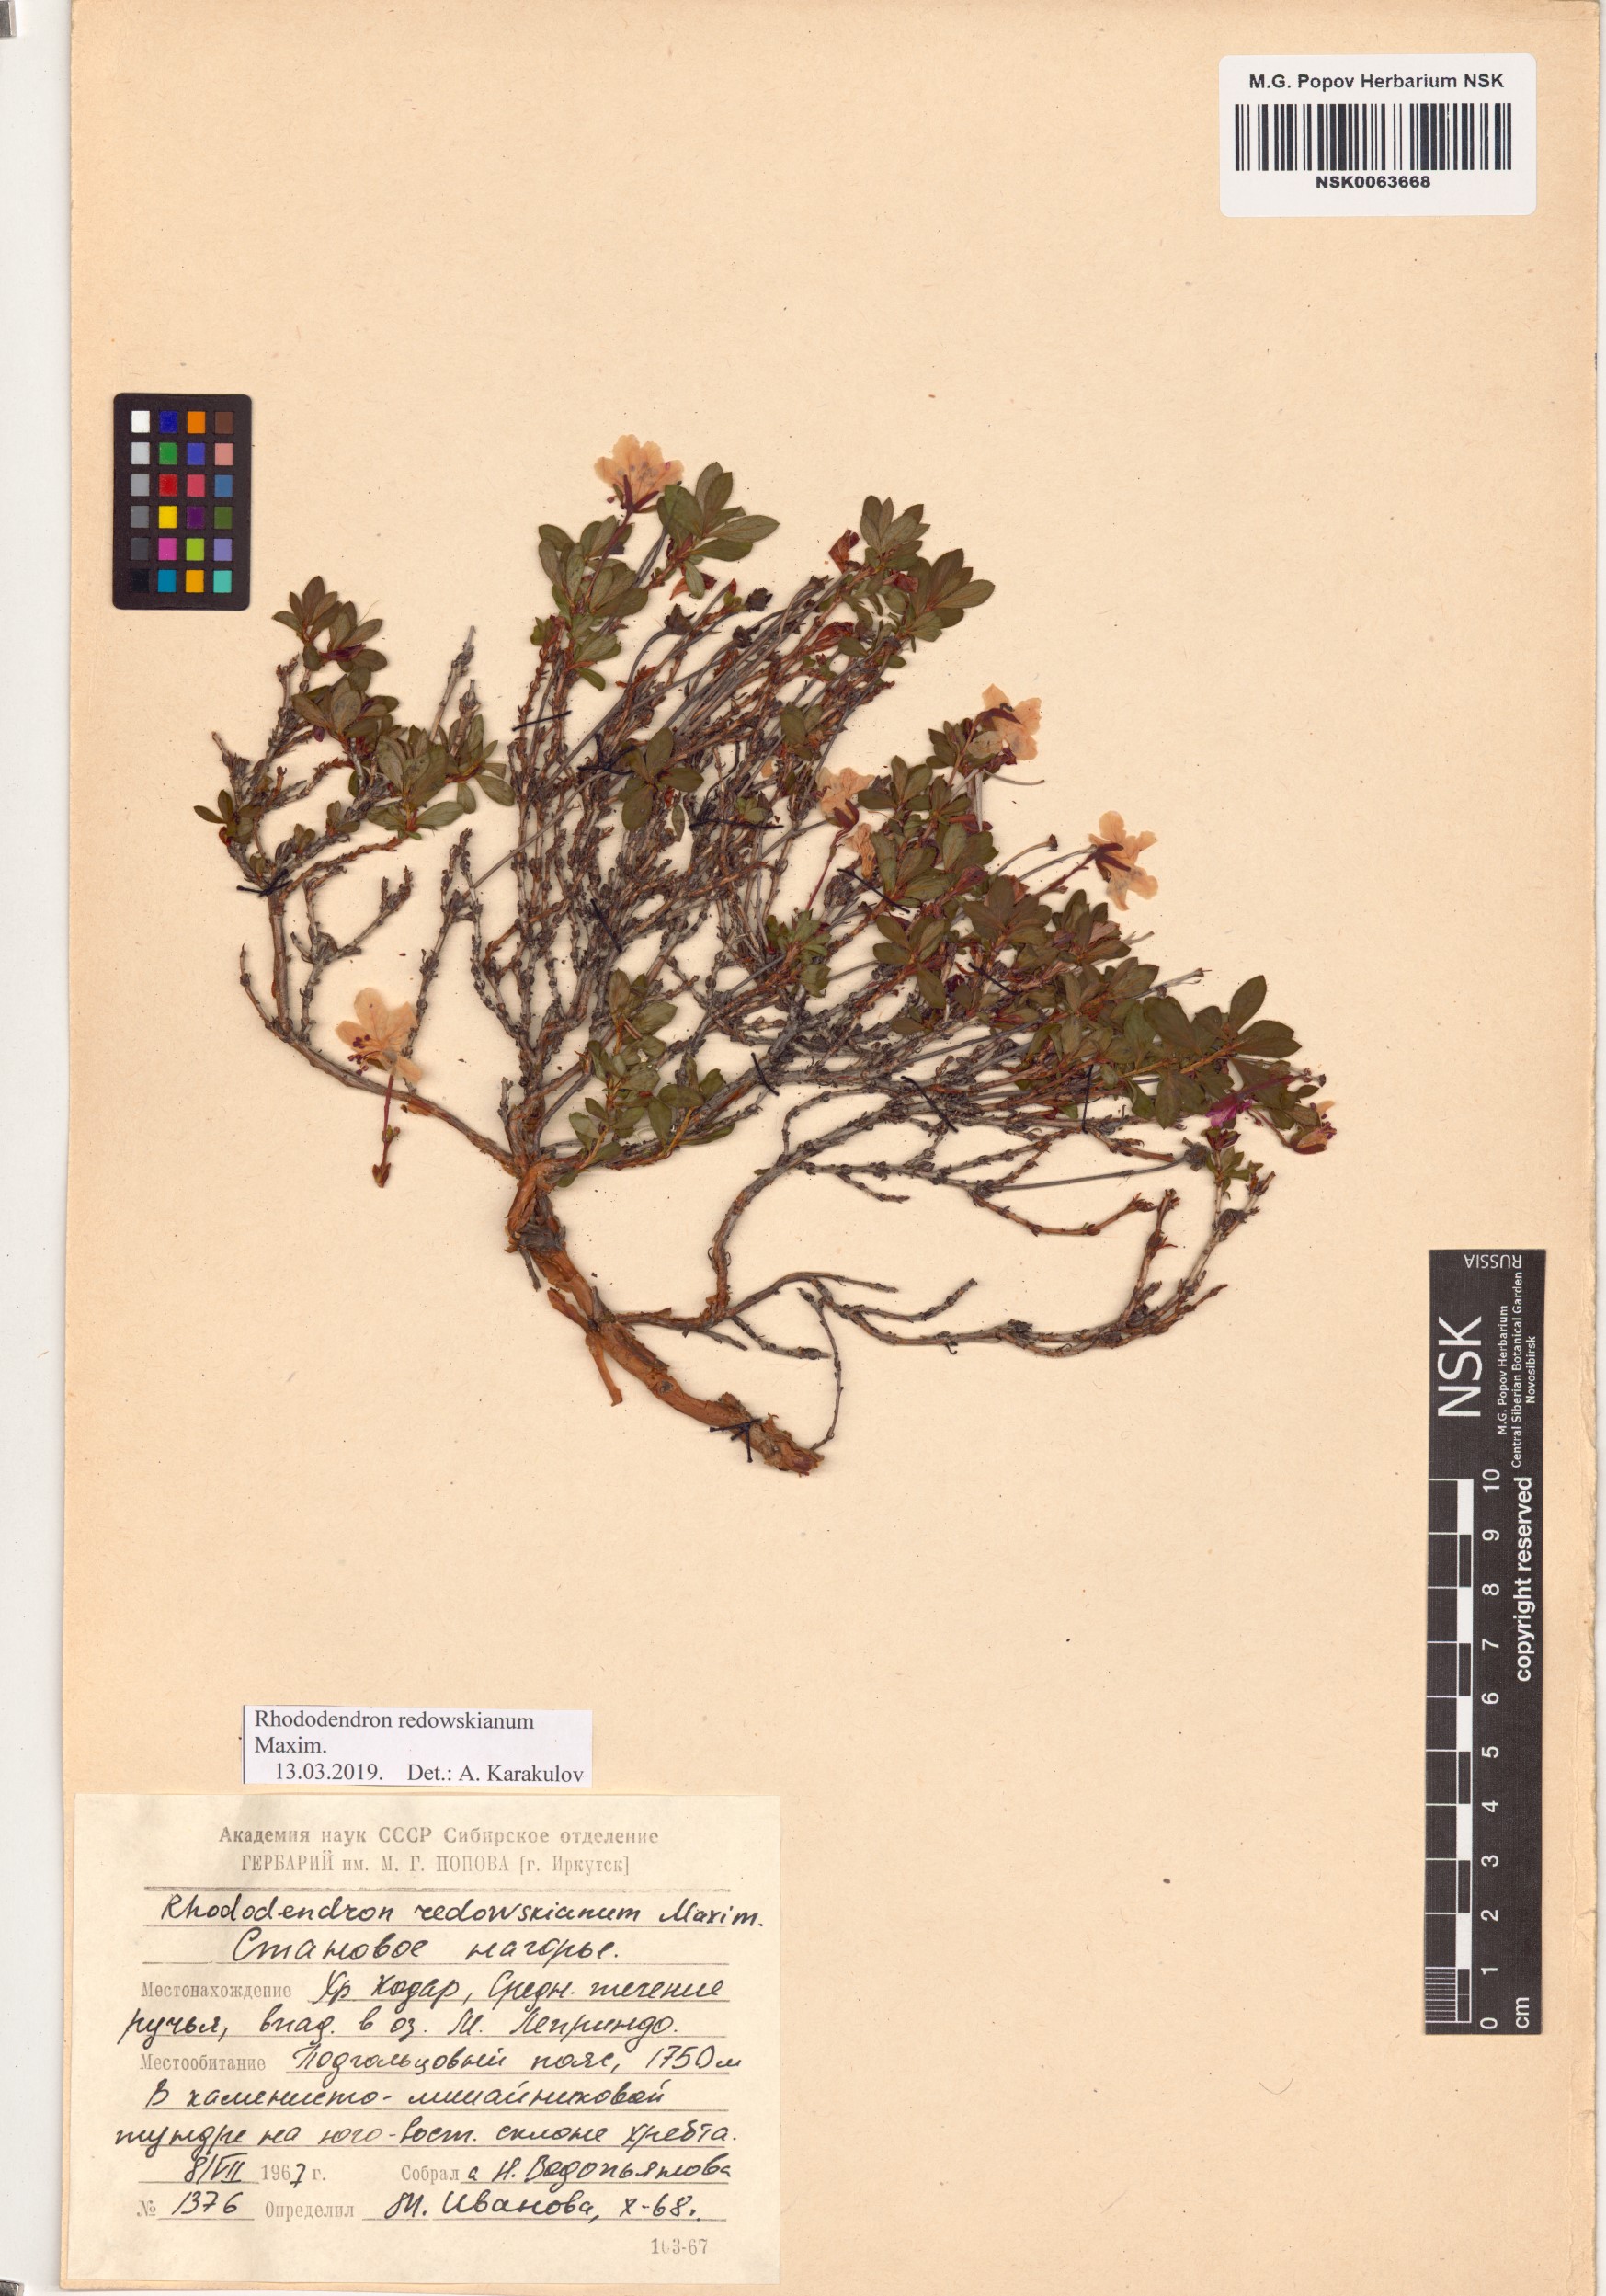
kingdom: Plantae
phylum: Tracheophyta
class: Magnoliopsida
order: Ericales
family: Ericaceae
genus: Rhododendron
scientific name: Rhododendron redowskianum
